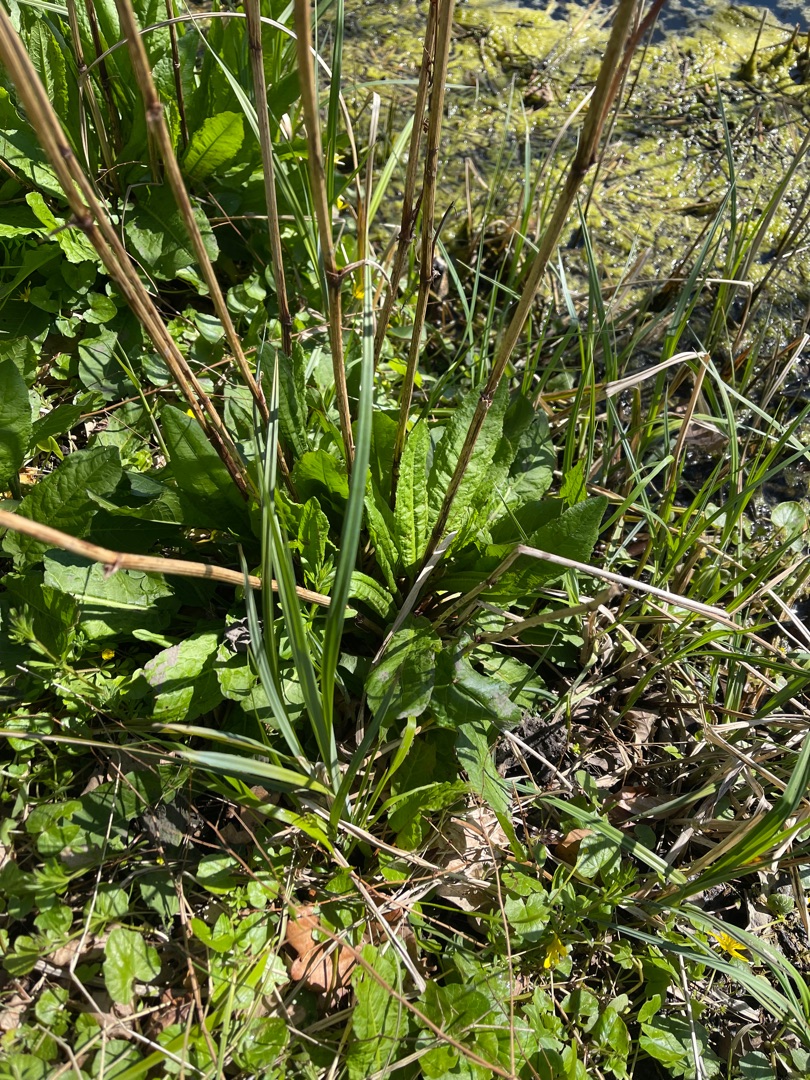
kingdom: Plantae
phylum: Tracheophyta
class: Magnoliopsida
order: Caryophyllales
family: Polygonaceae
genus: Rumex
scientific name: Rumex
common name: Skræppeslægten
